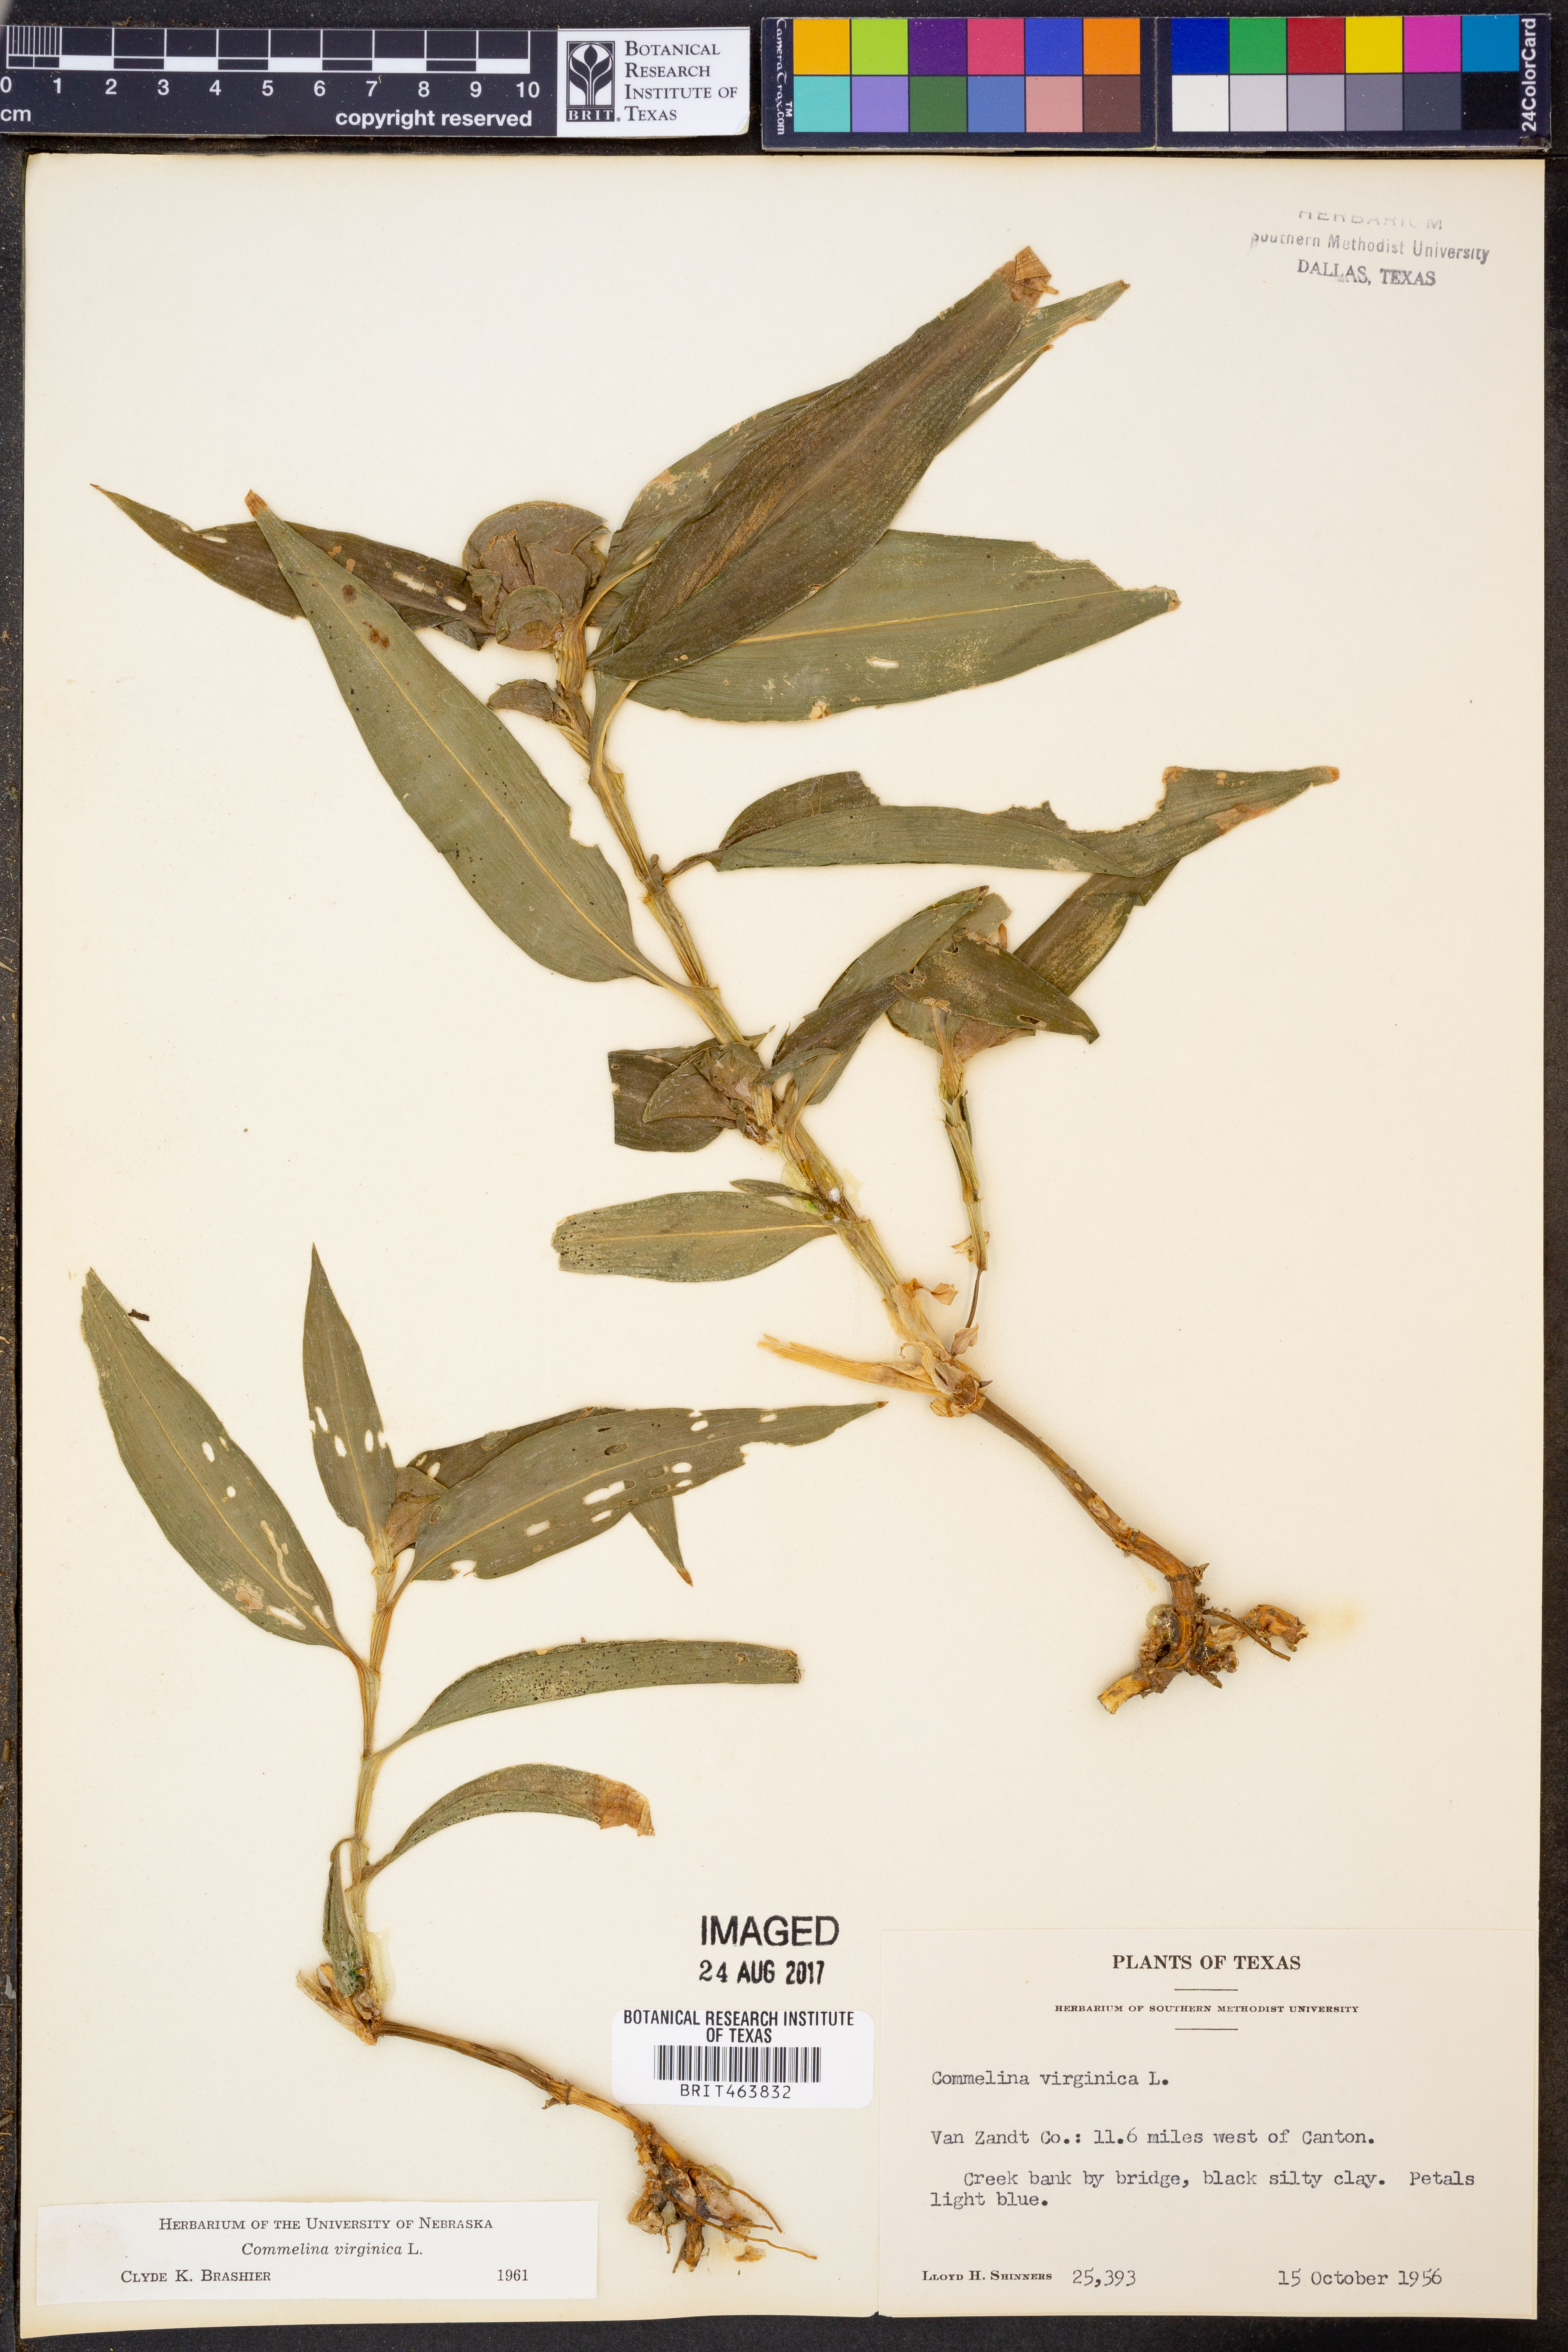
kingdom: Plantae
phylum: Tracheophyta
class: Liliopsida
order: Commelinales
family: Commelinaceae
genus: Commelina
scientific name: Commelina virginica
